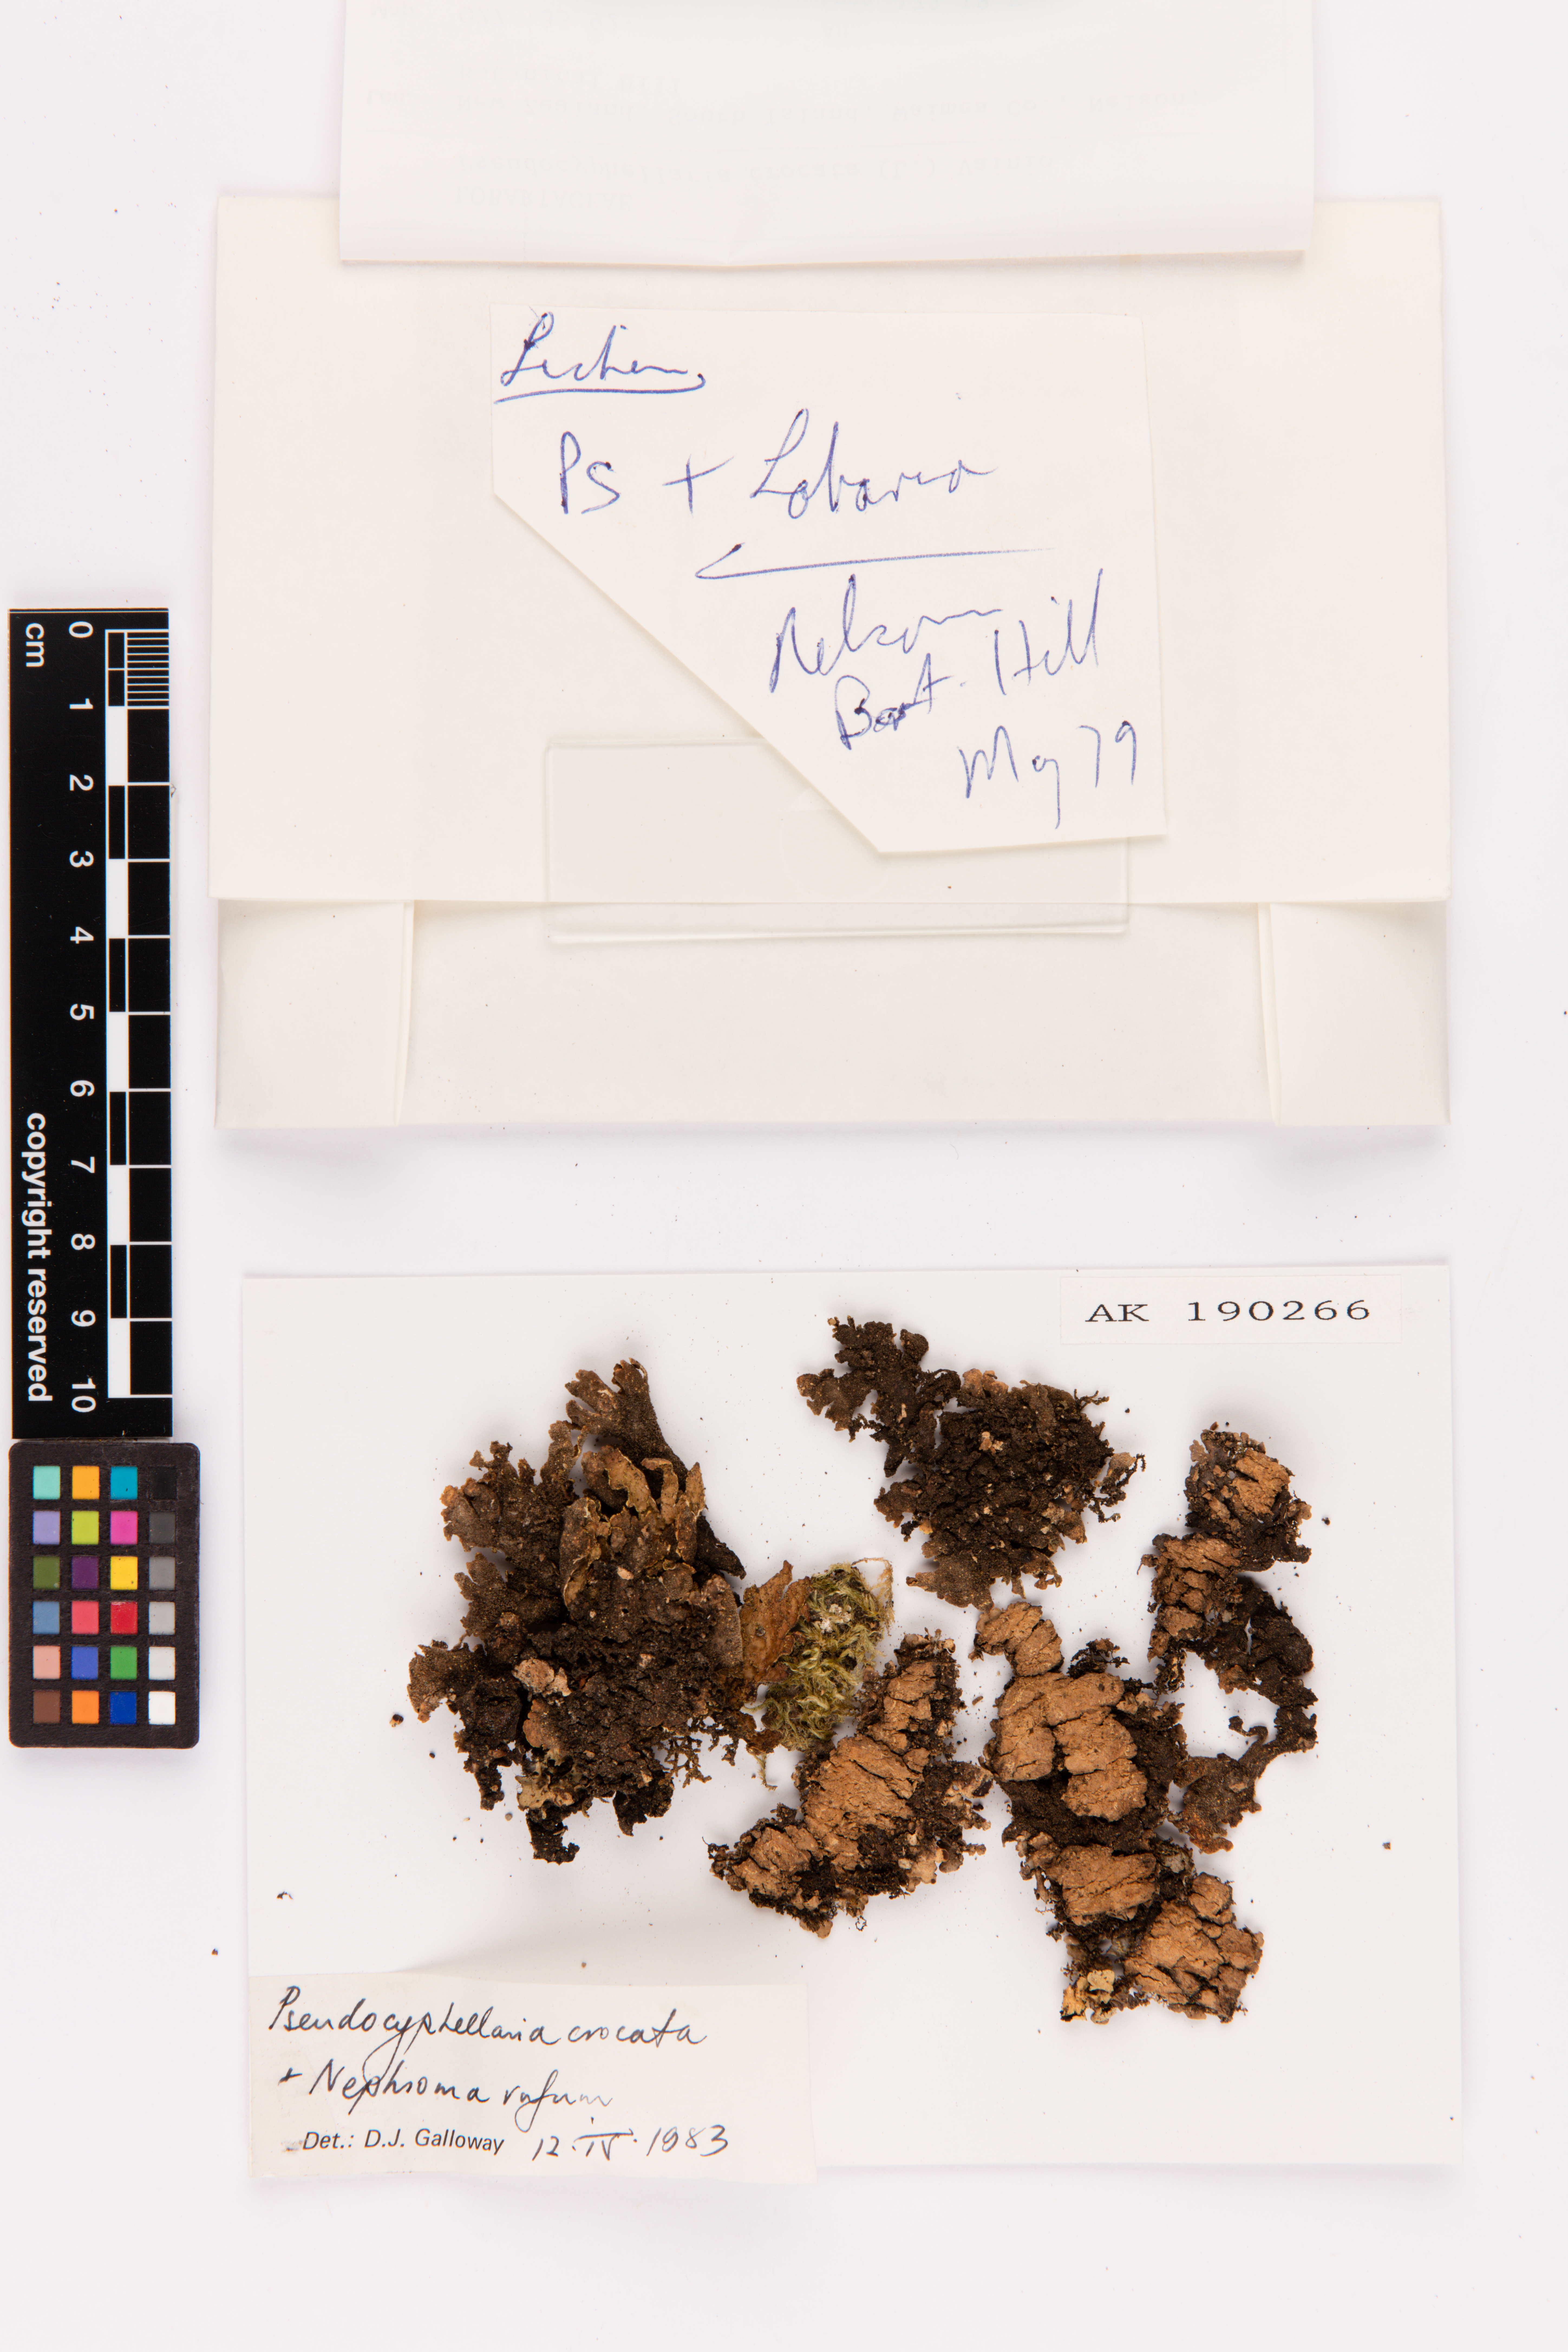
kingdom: Fungi
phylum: Ascomycota
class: Lecanoromycetes
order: Peltigerales
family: Lobariaceae
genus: Pseudocyphellaria
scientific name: Pseudocyphellaria crocata
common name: Golden specklebelly
